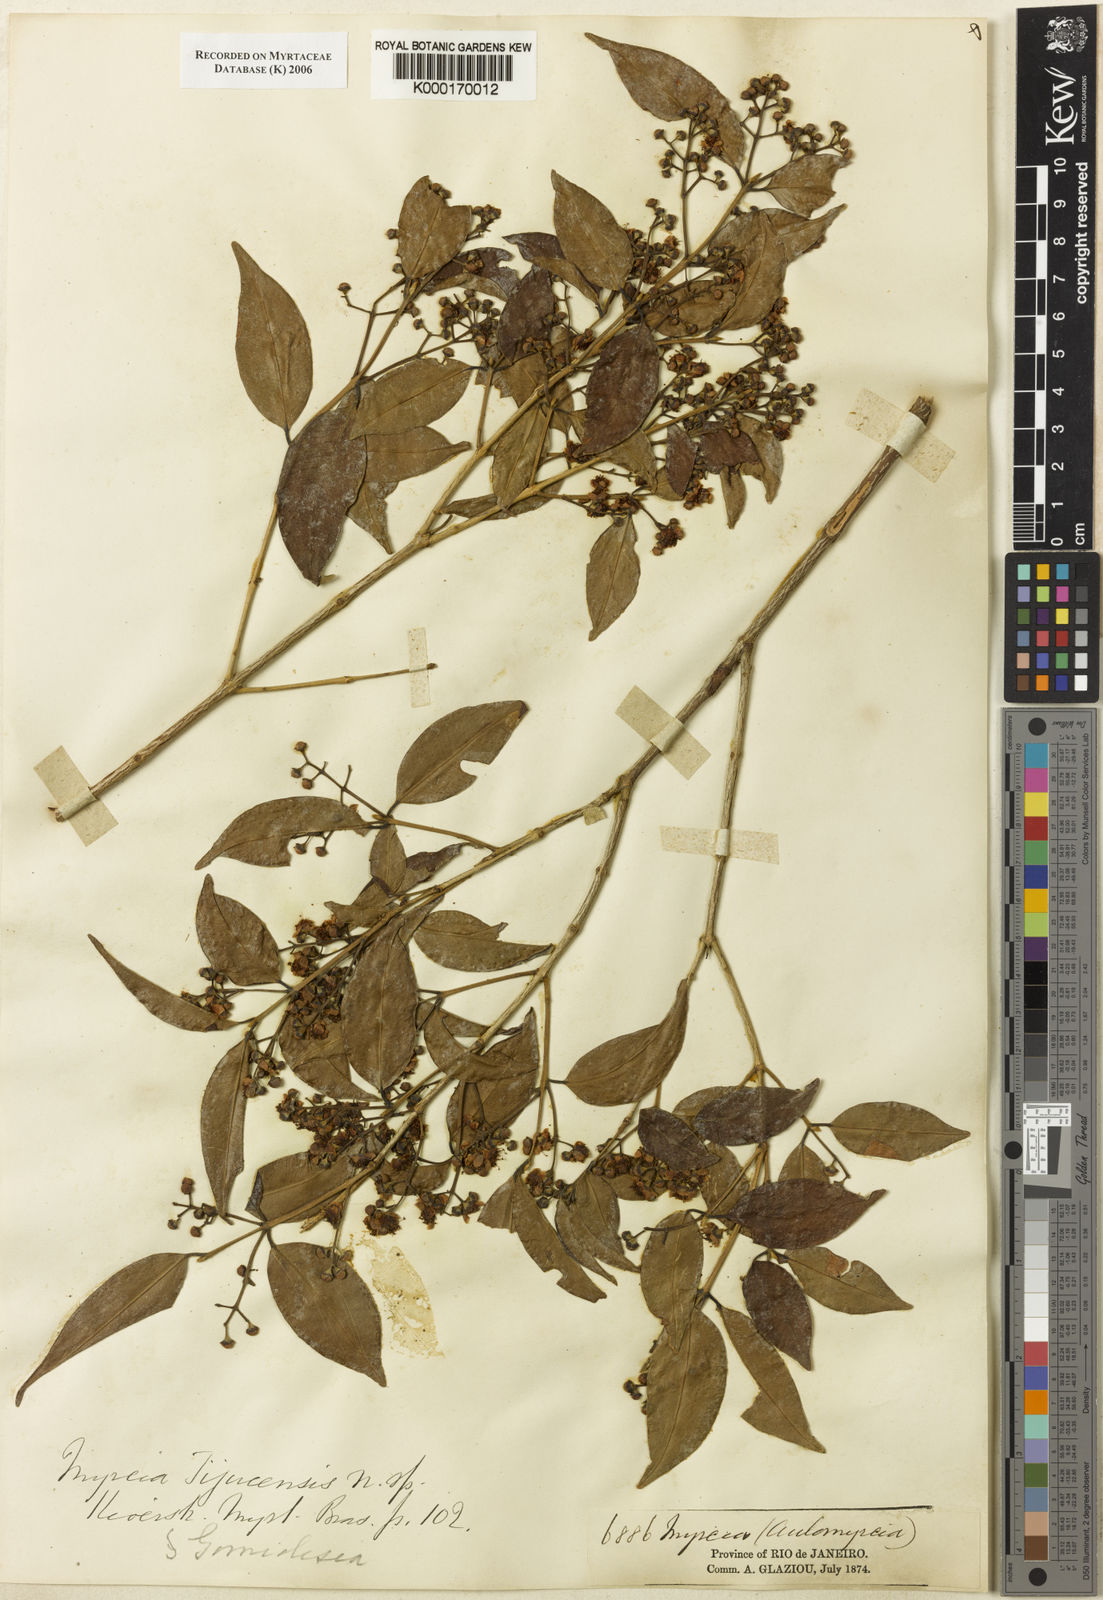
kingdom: Plantae
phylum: Tracheophyta
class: Magnoliopsida
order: Myrtales
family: Myrtaceae
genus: Myrcia
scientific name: Myrcia tijucensis
